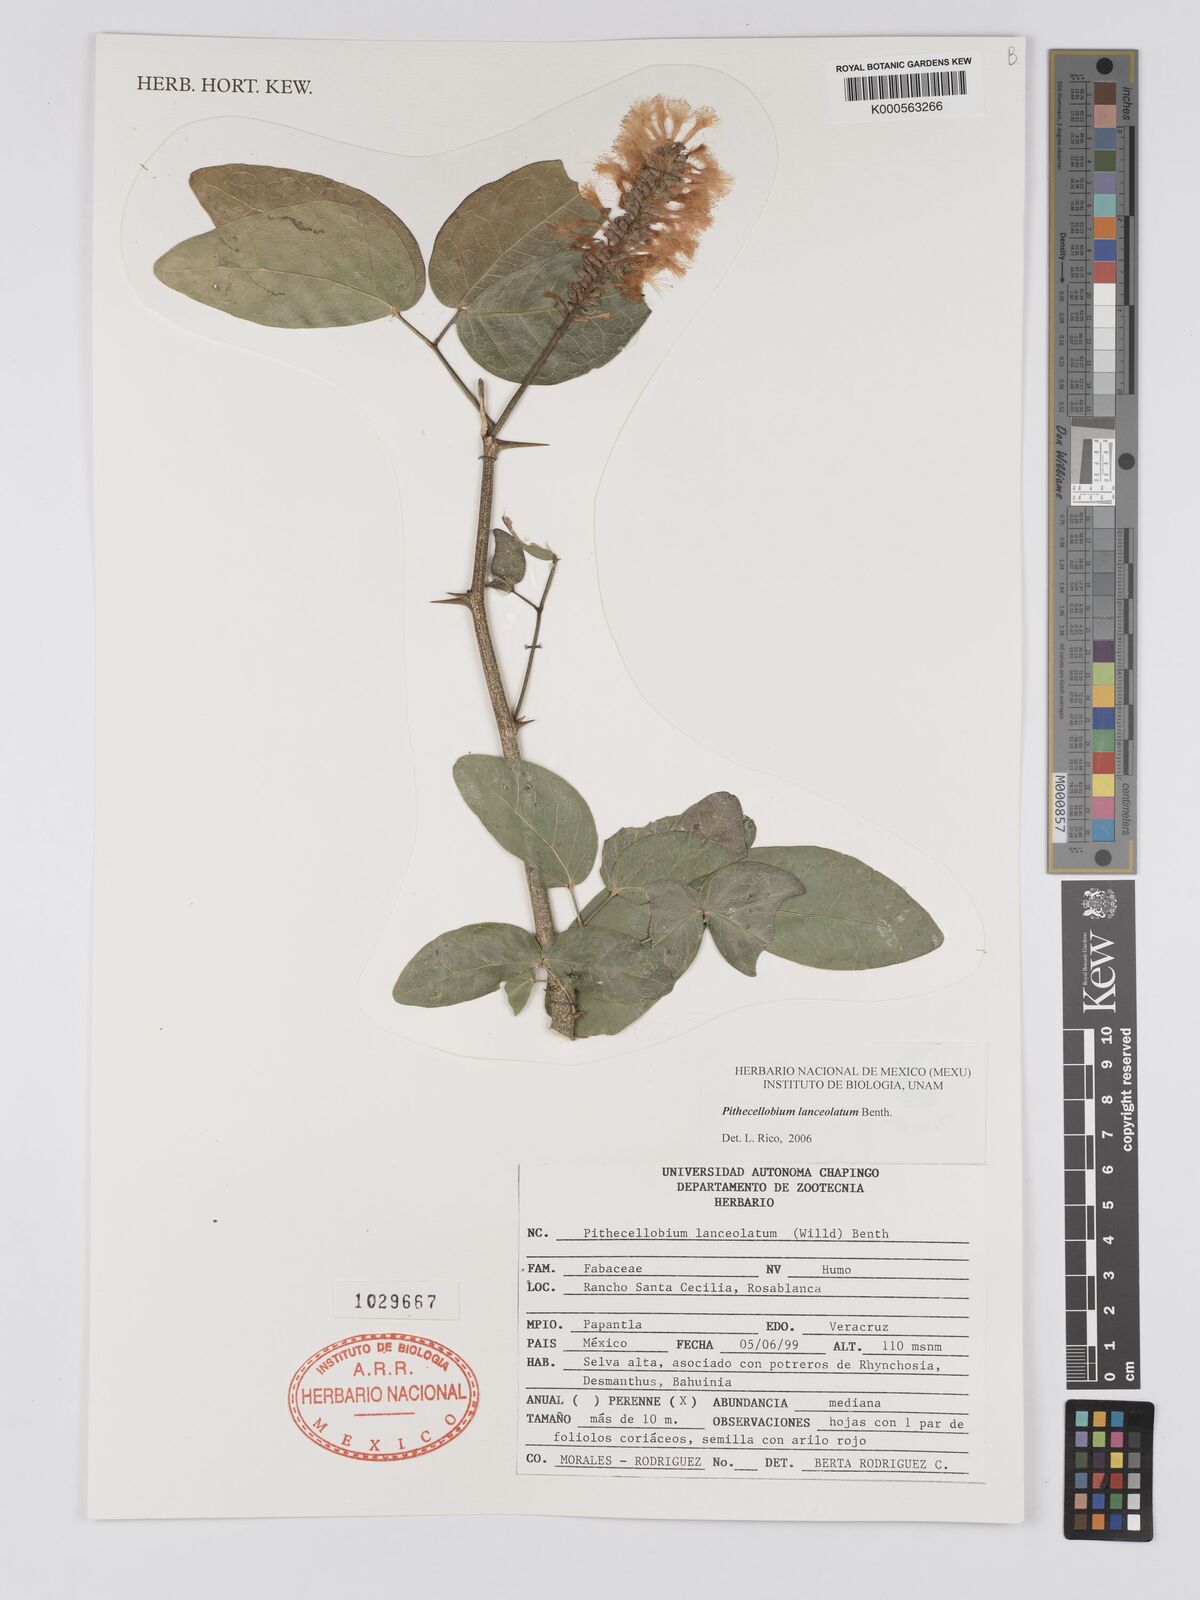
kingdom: Plantae
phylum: Tracheophyta
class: Magnoliopsida
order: Fabales
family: Fabaceae
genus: Pithecellobium
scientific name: Pithecellobium lanceolatum
